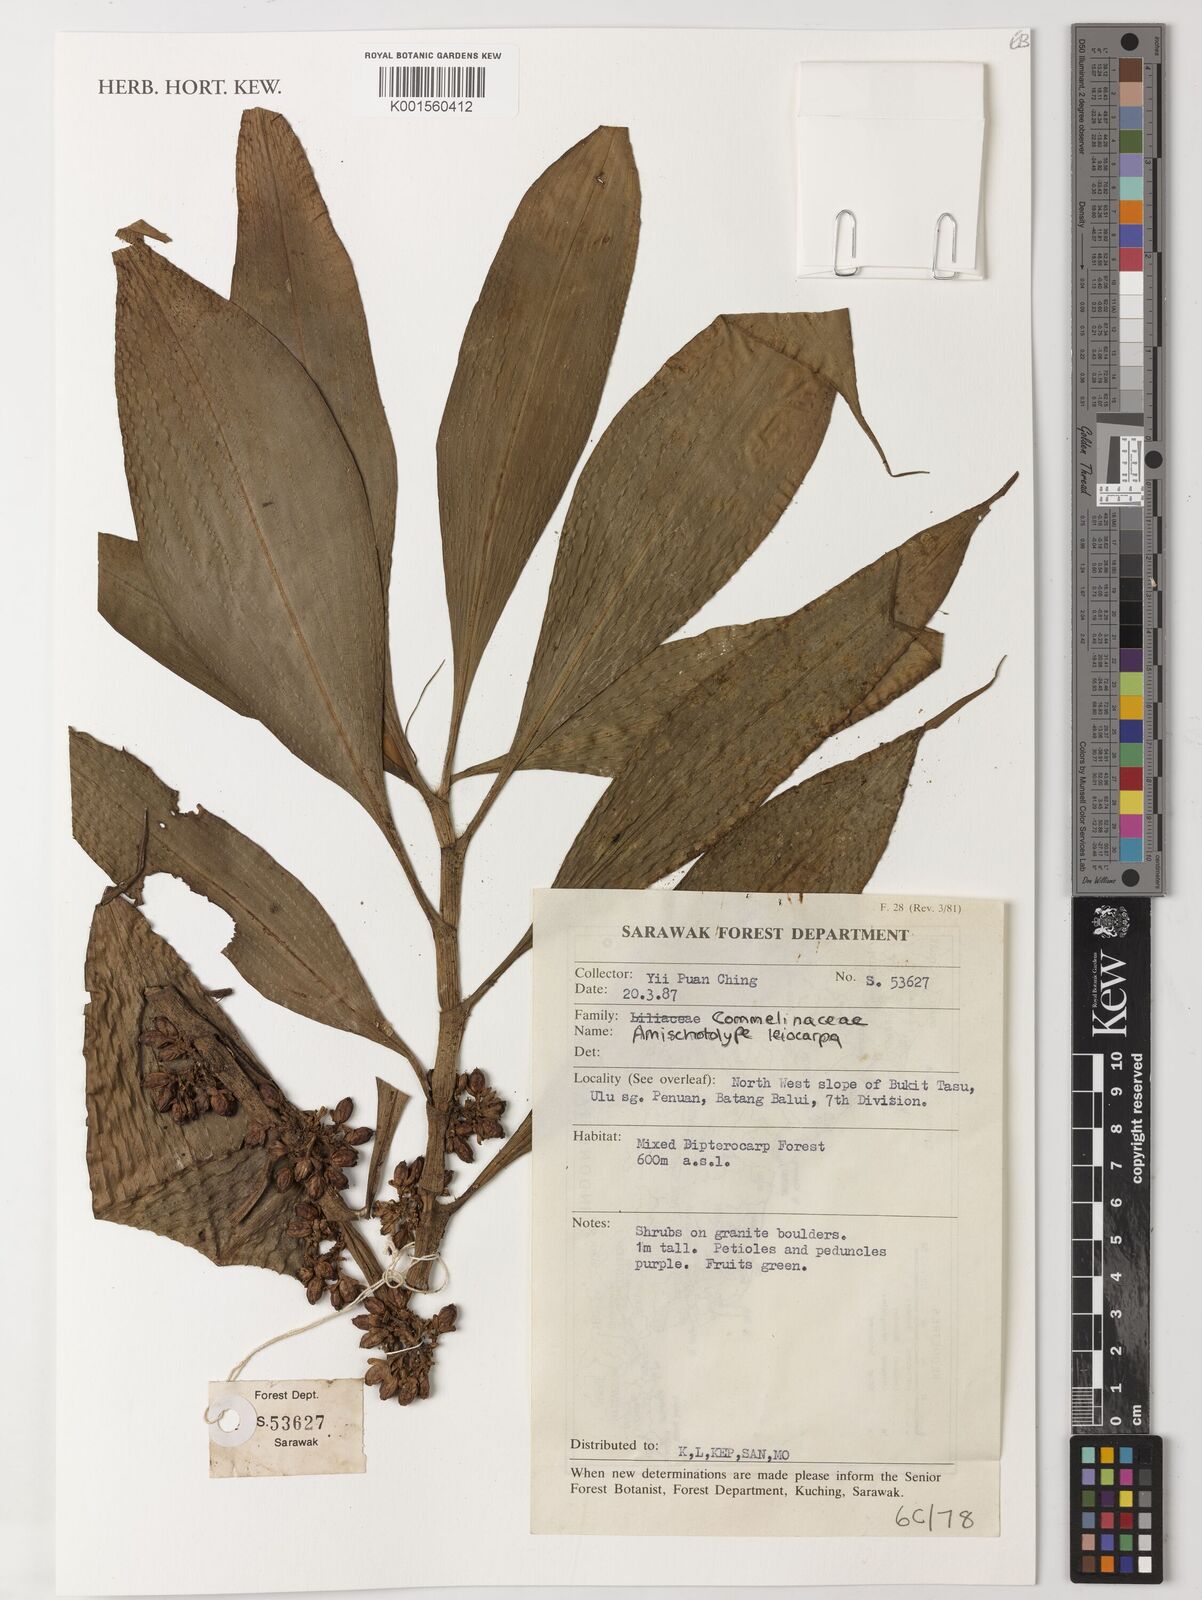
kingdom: Plantae
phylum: Tracheophyta
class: Liliopsida
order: Commelinales
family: Commelinaceae
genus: Amischotolype
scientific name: Amischotolype leiocarpa
